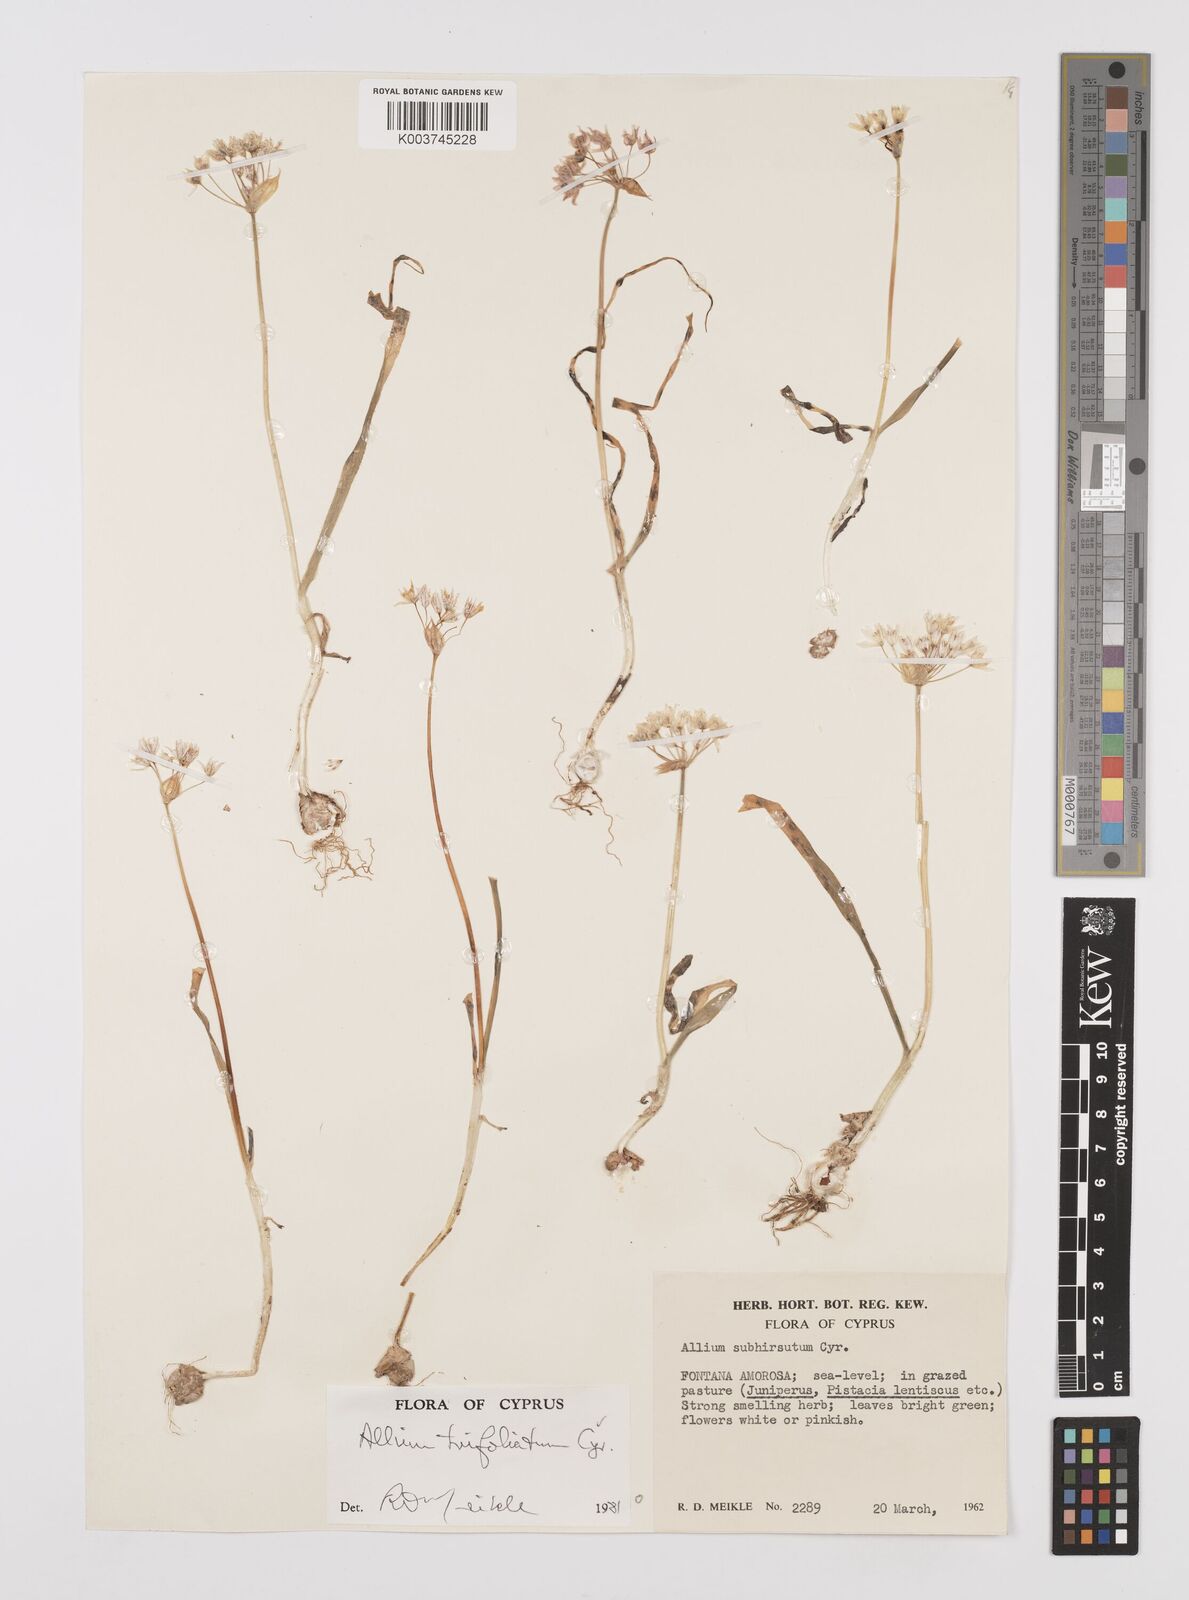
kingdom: Plantae
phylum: Tracheophyta
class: Liliopsida
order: Asparagales
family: Amaryllidaceae
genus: Allium
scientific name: Allium subhirsutum
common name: Hairy garlic
